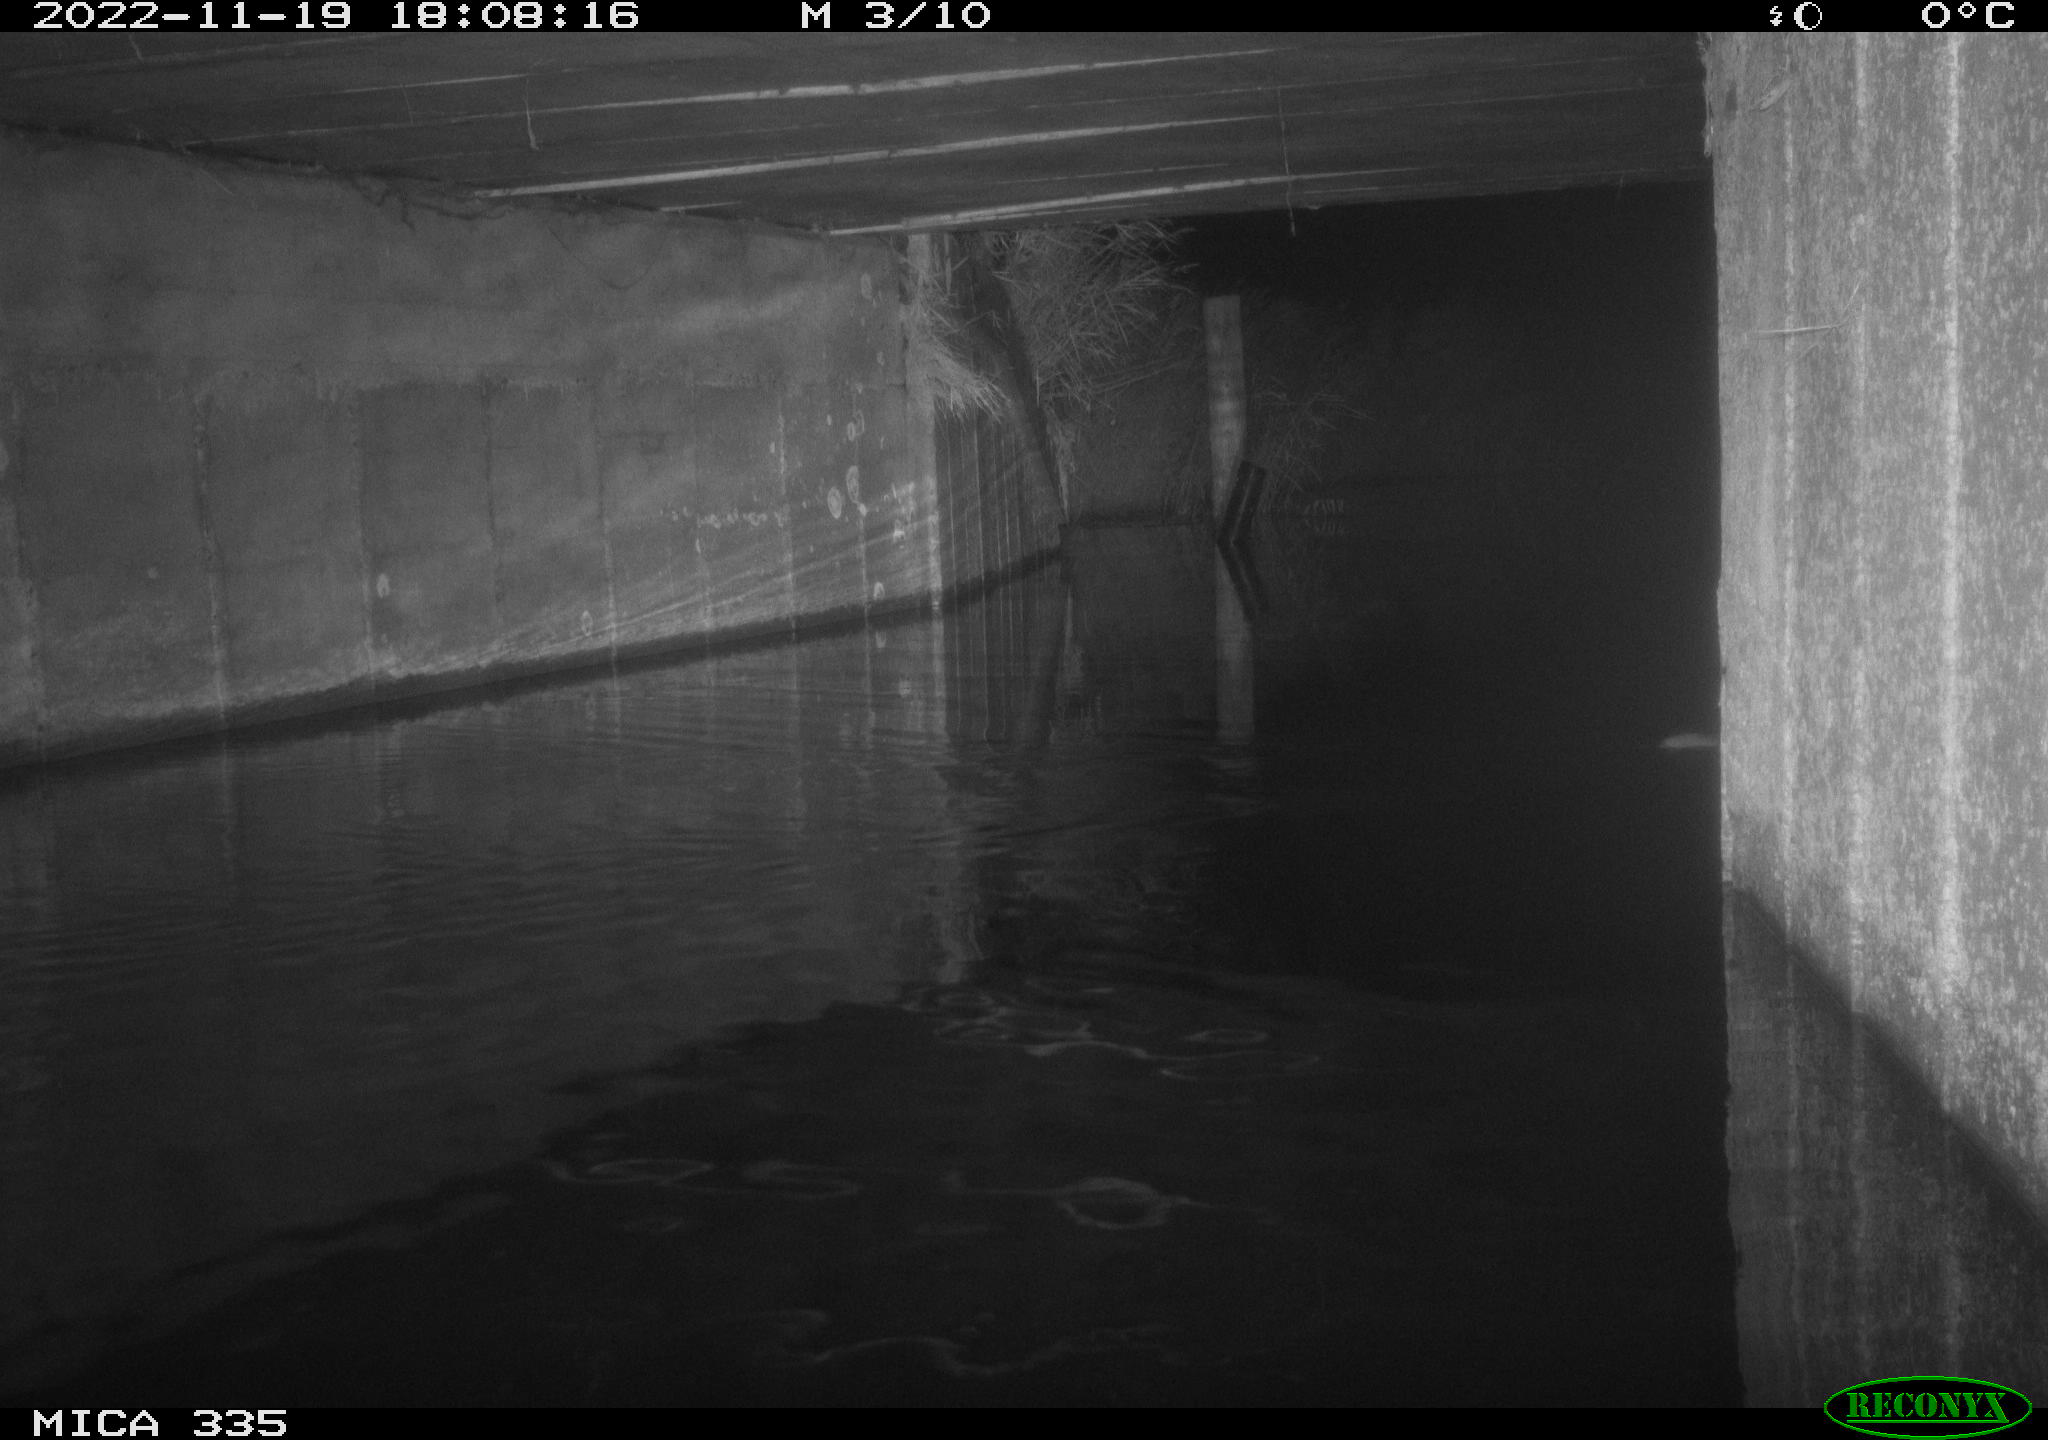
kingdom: Animalia
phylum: Chordata
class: Mammalia
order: Rodentia
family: Muridae
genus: Rattus
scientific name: Rattus norvegicus
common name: Brown rat
